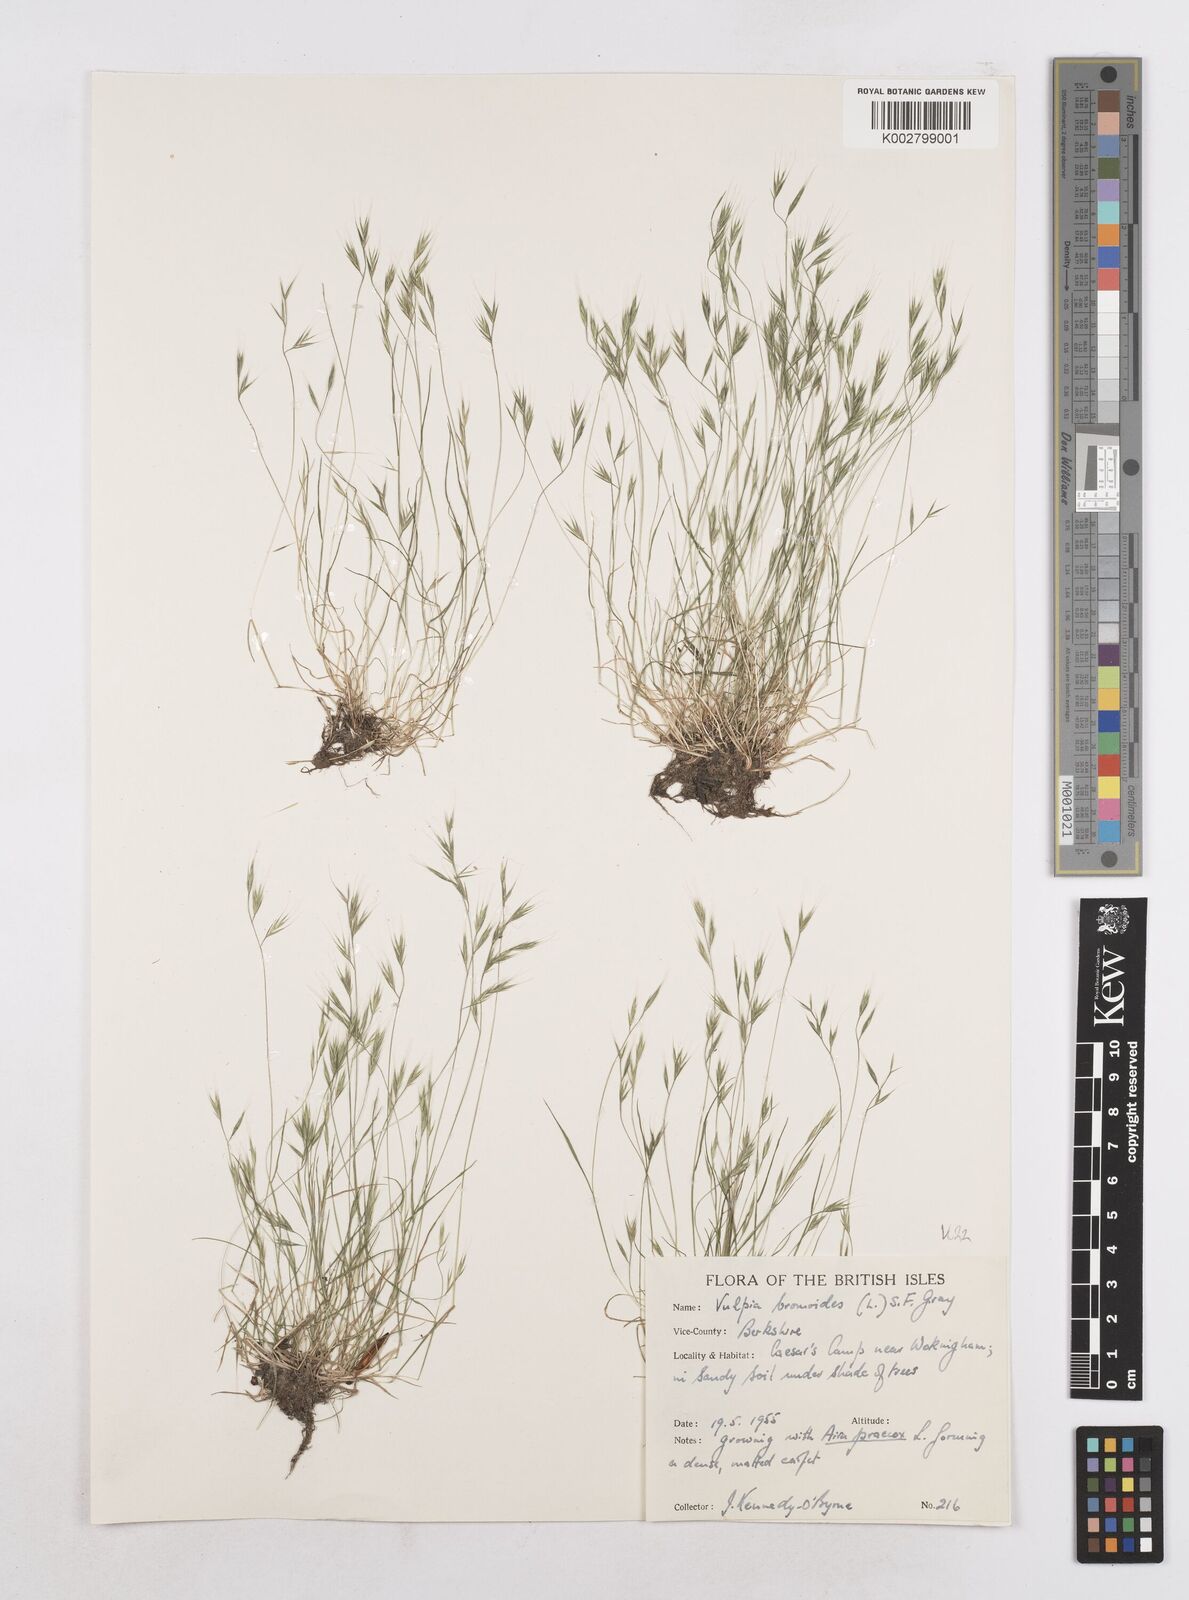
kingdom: Plantae
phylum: Tracheophyta
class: Liliopsida
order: Poales
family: Poaceae
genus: Festuca
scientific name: Festuca bromoides
